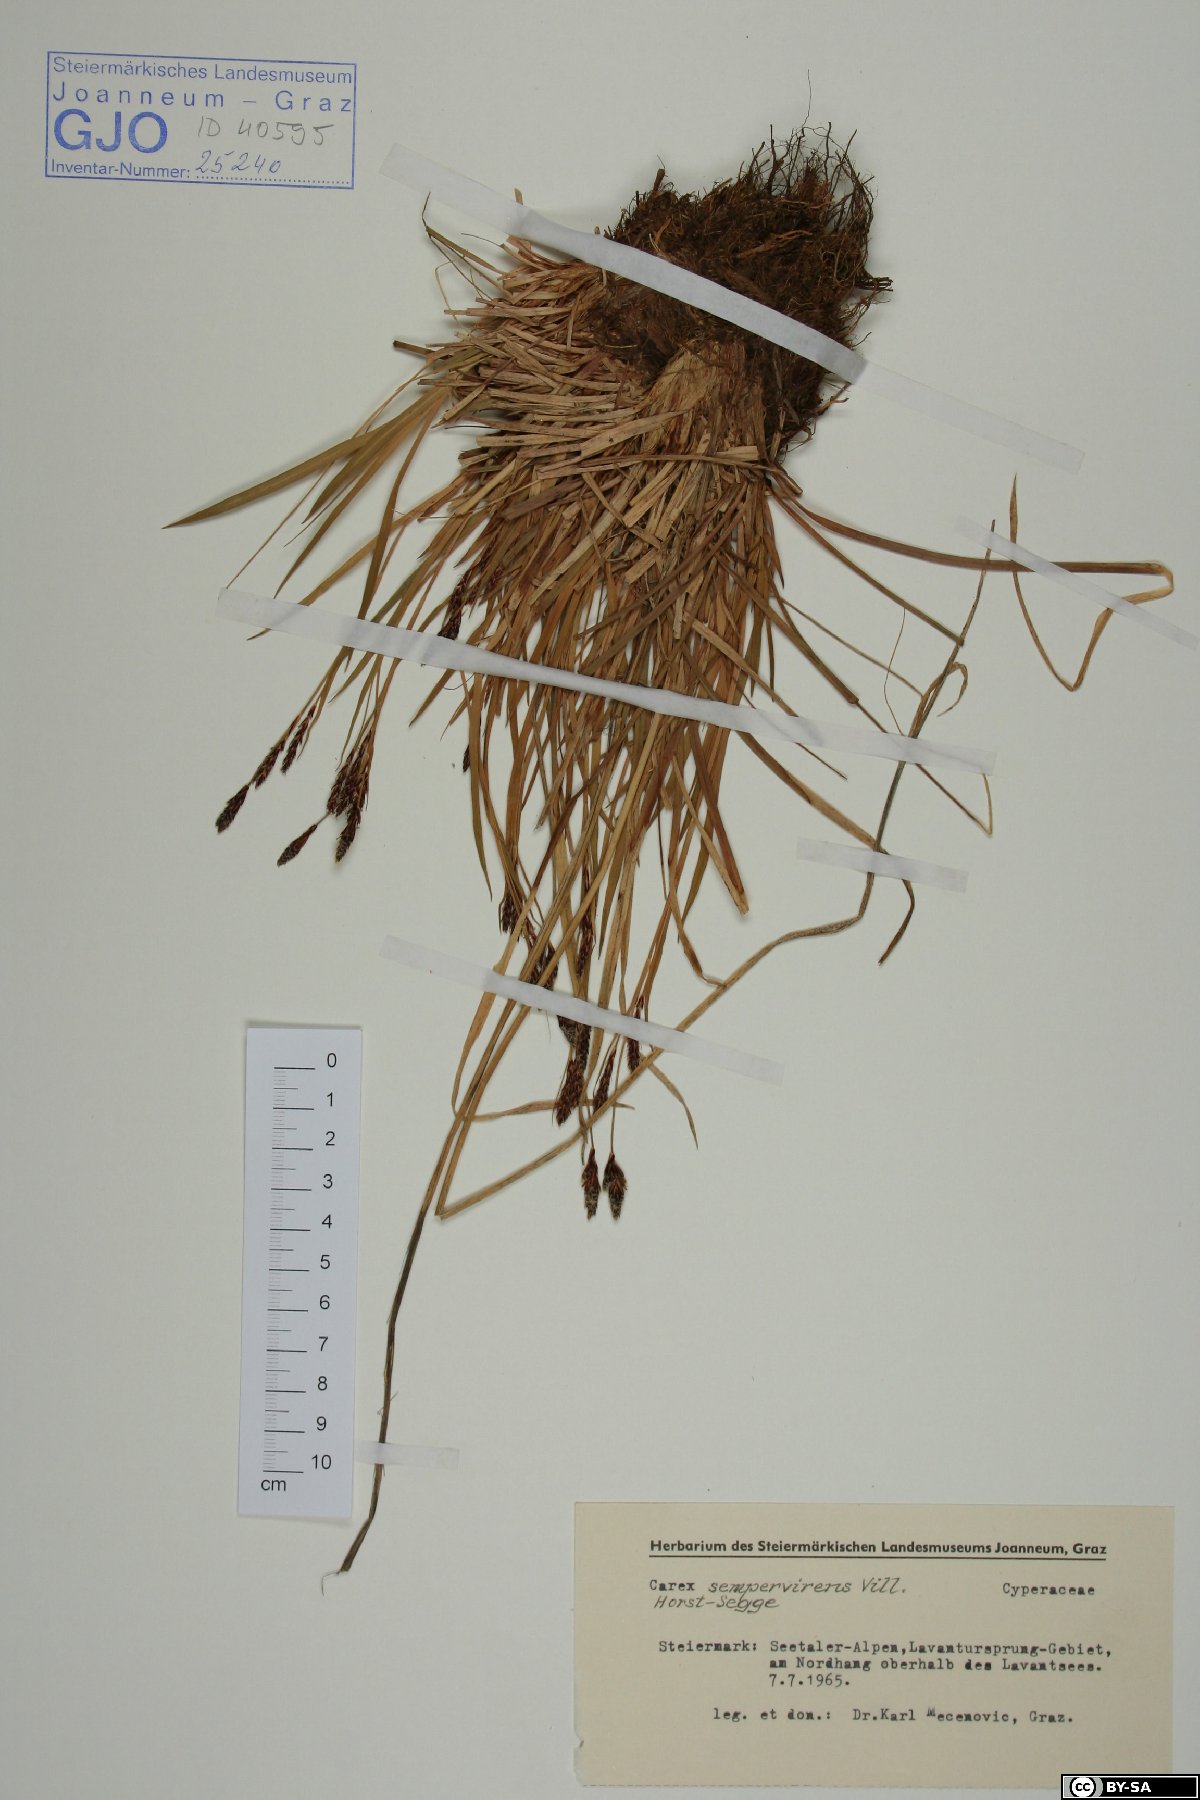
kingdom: Plantae
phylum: Tracheophyta
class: Liliopsida
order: Poales
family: Cyperaceae
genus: Carex
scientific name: Carex sempervirens
